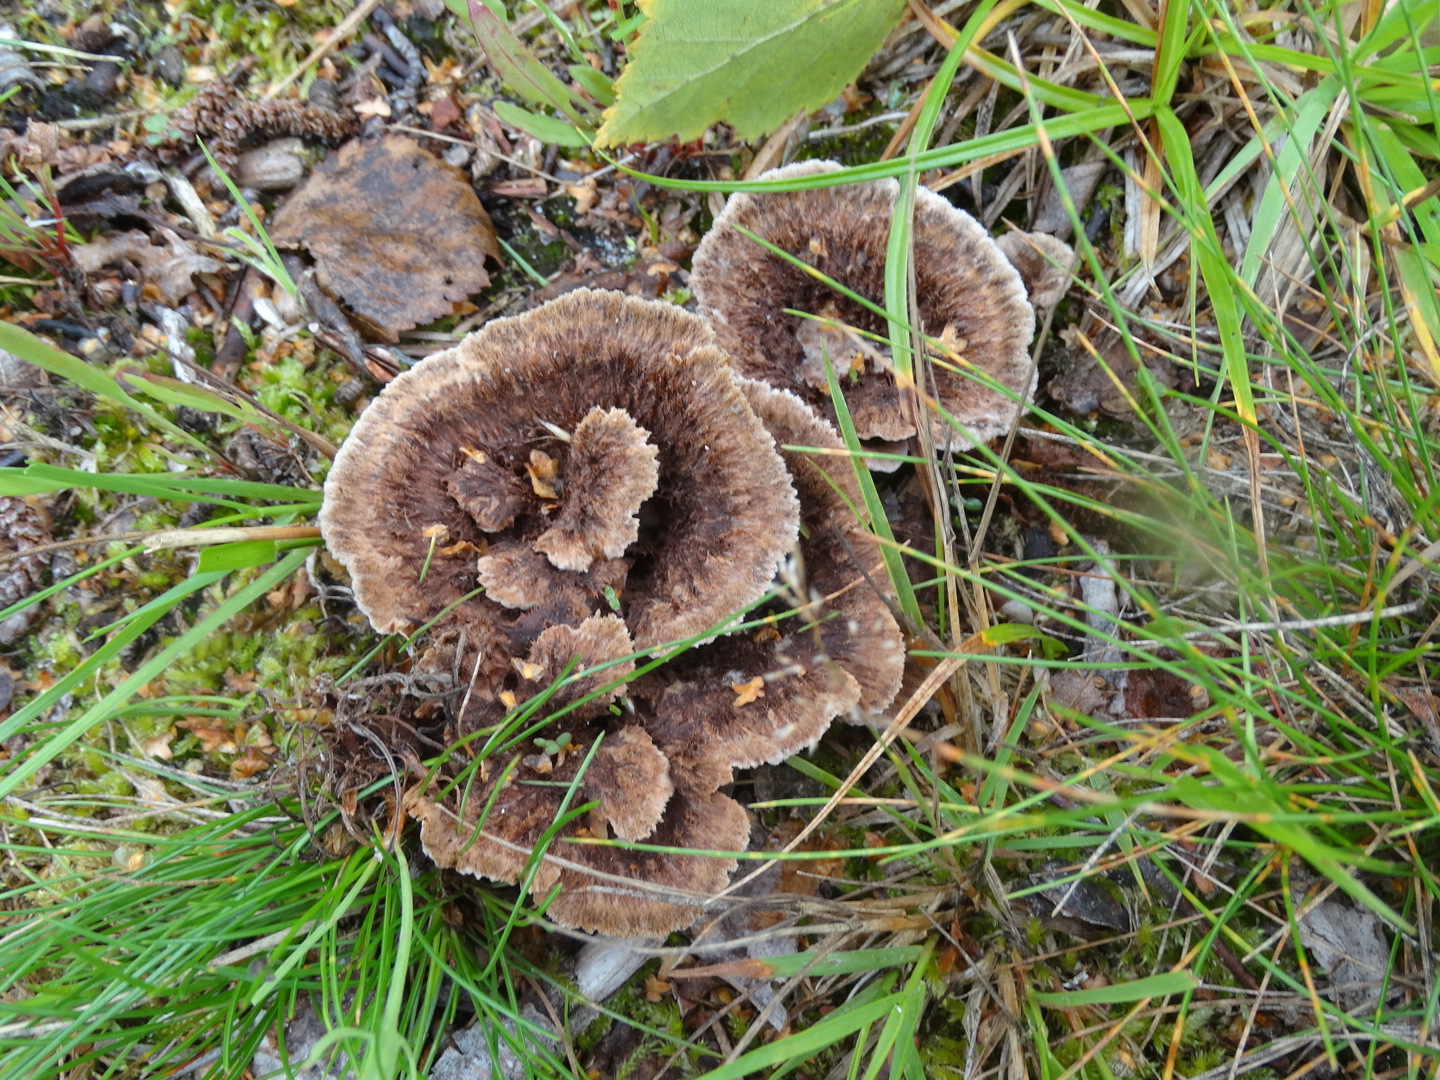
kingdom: Fungi
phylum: Basidiomycota
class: Agaricomycetes
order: Thelephorales
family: Thelephoraceae
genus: Thelephora
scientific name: Thelephora terrestris
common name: fliget frynsesvamp
